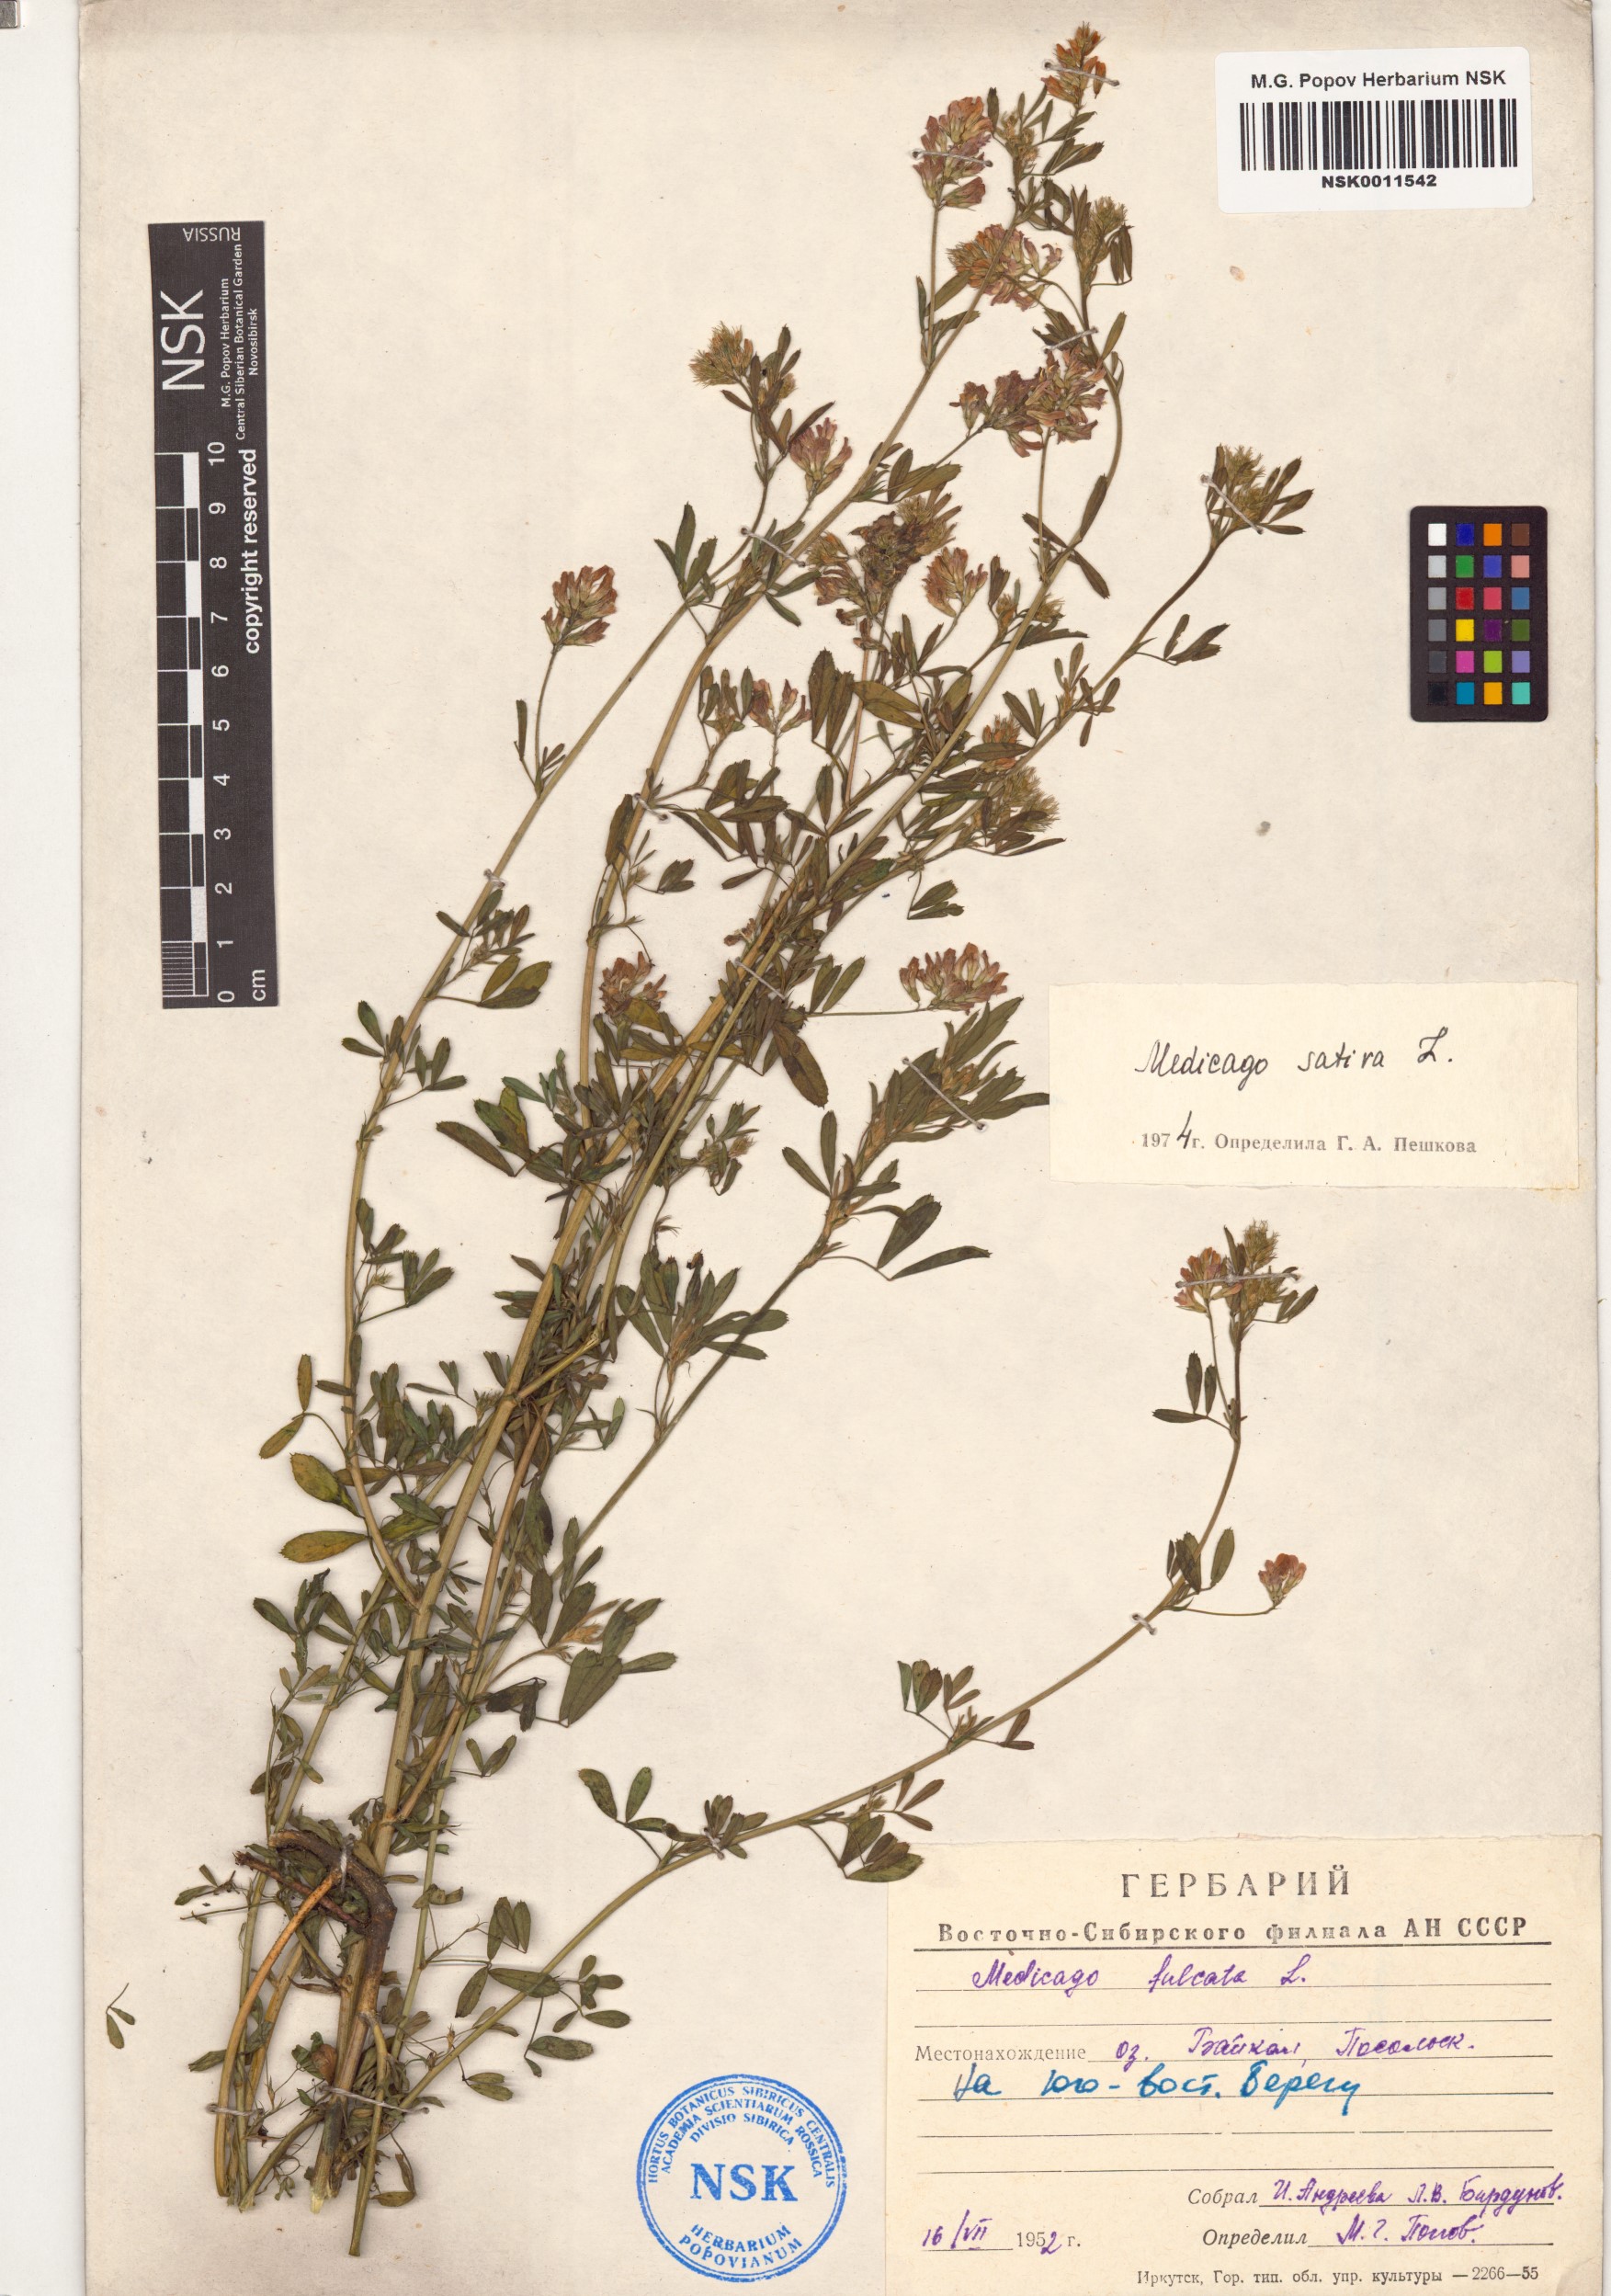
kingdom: Plantae
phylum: Tracheophyta
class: Magnoliopsida
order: Fabales
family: Fabaceae
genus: Medicago
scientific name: Medicago sativa
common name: Alfalfa
